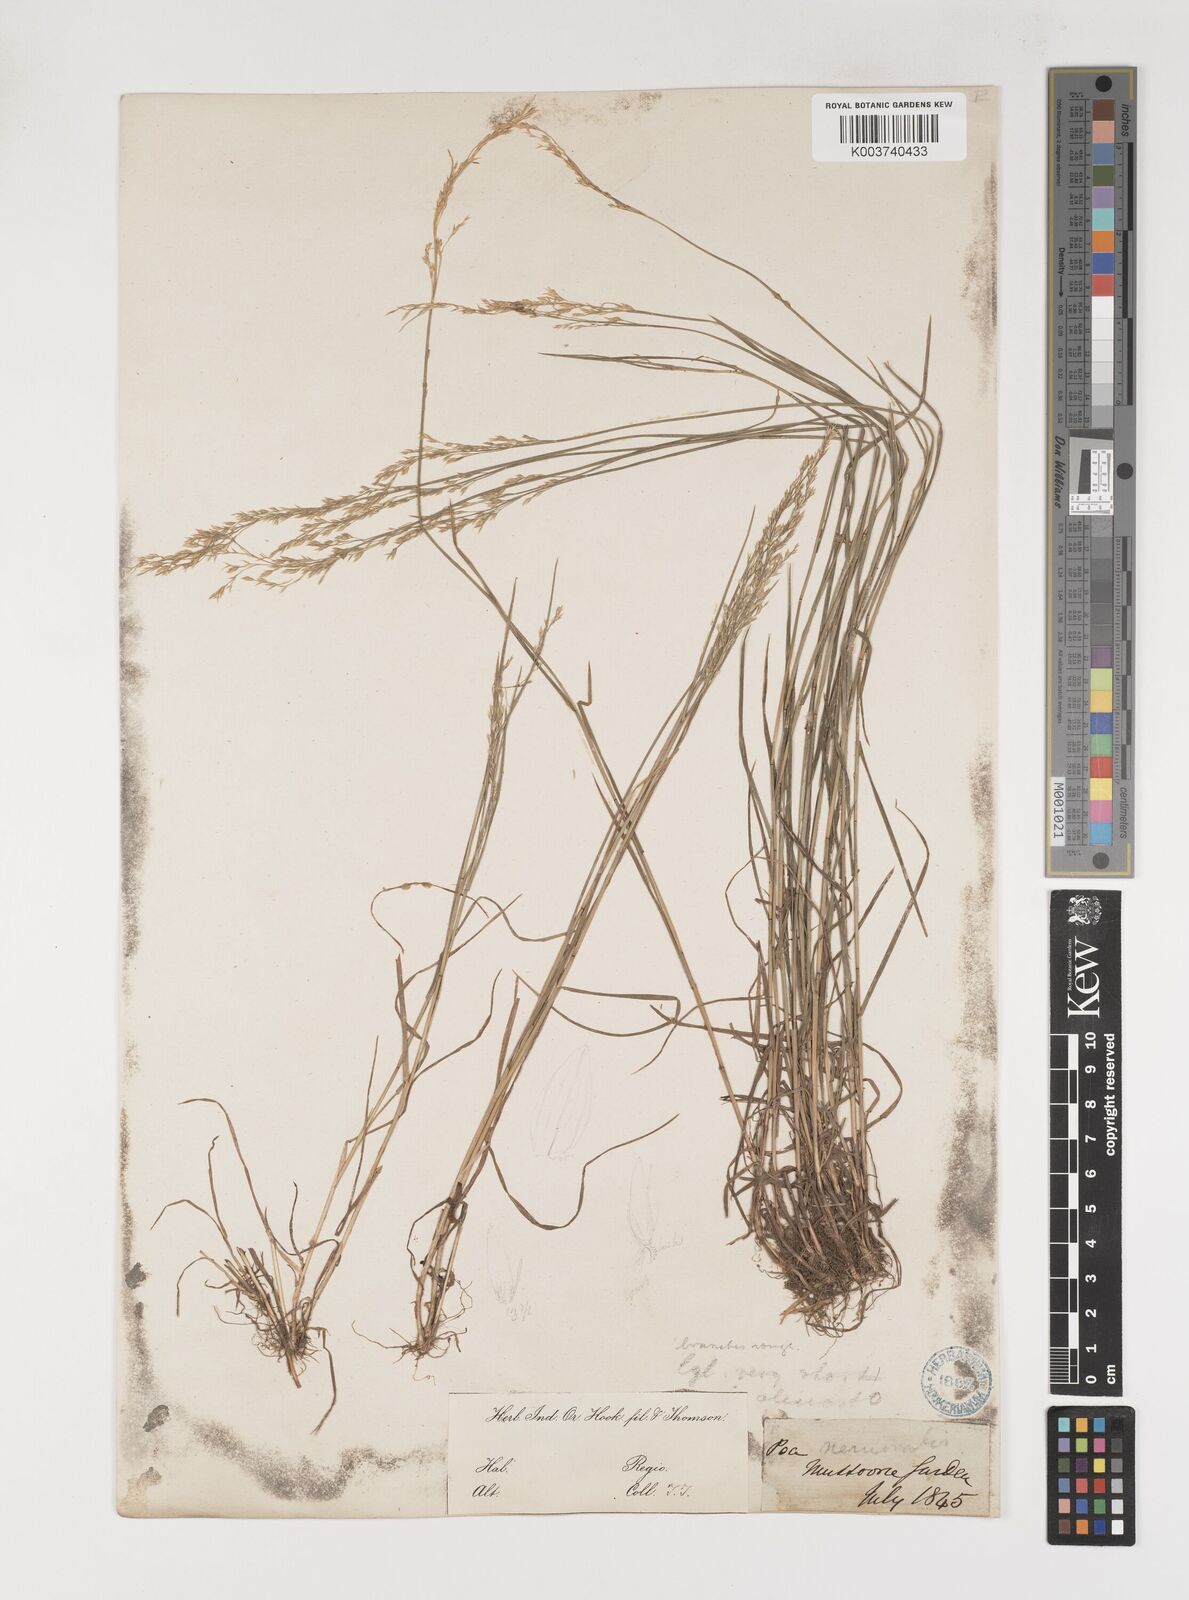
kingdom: Plantae
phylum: Tracheophyta
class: Liliopsida
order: Poales
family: Poaceae
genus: Poa
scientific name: Poa nemoralis
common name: Wood bluegrass
